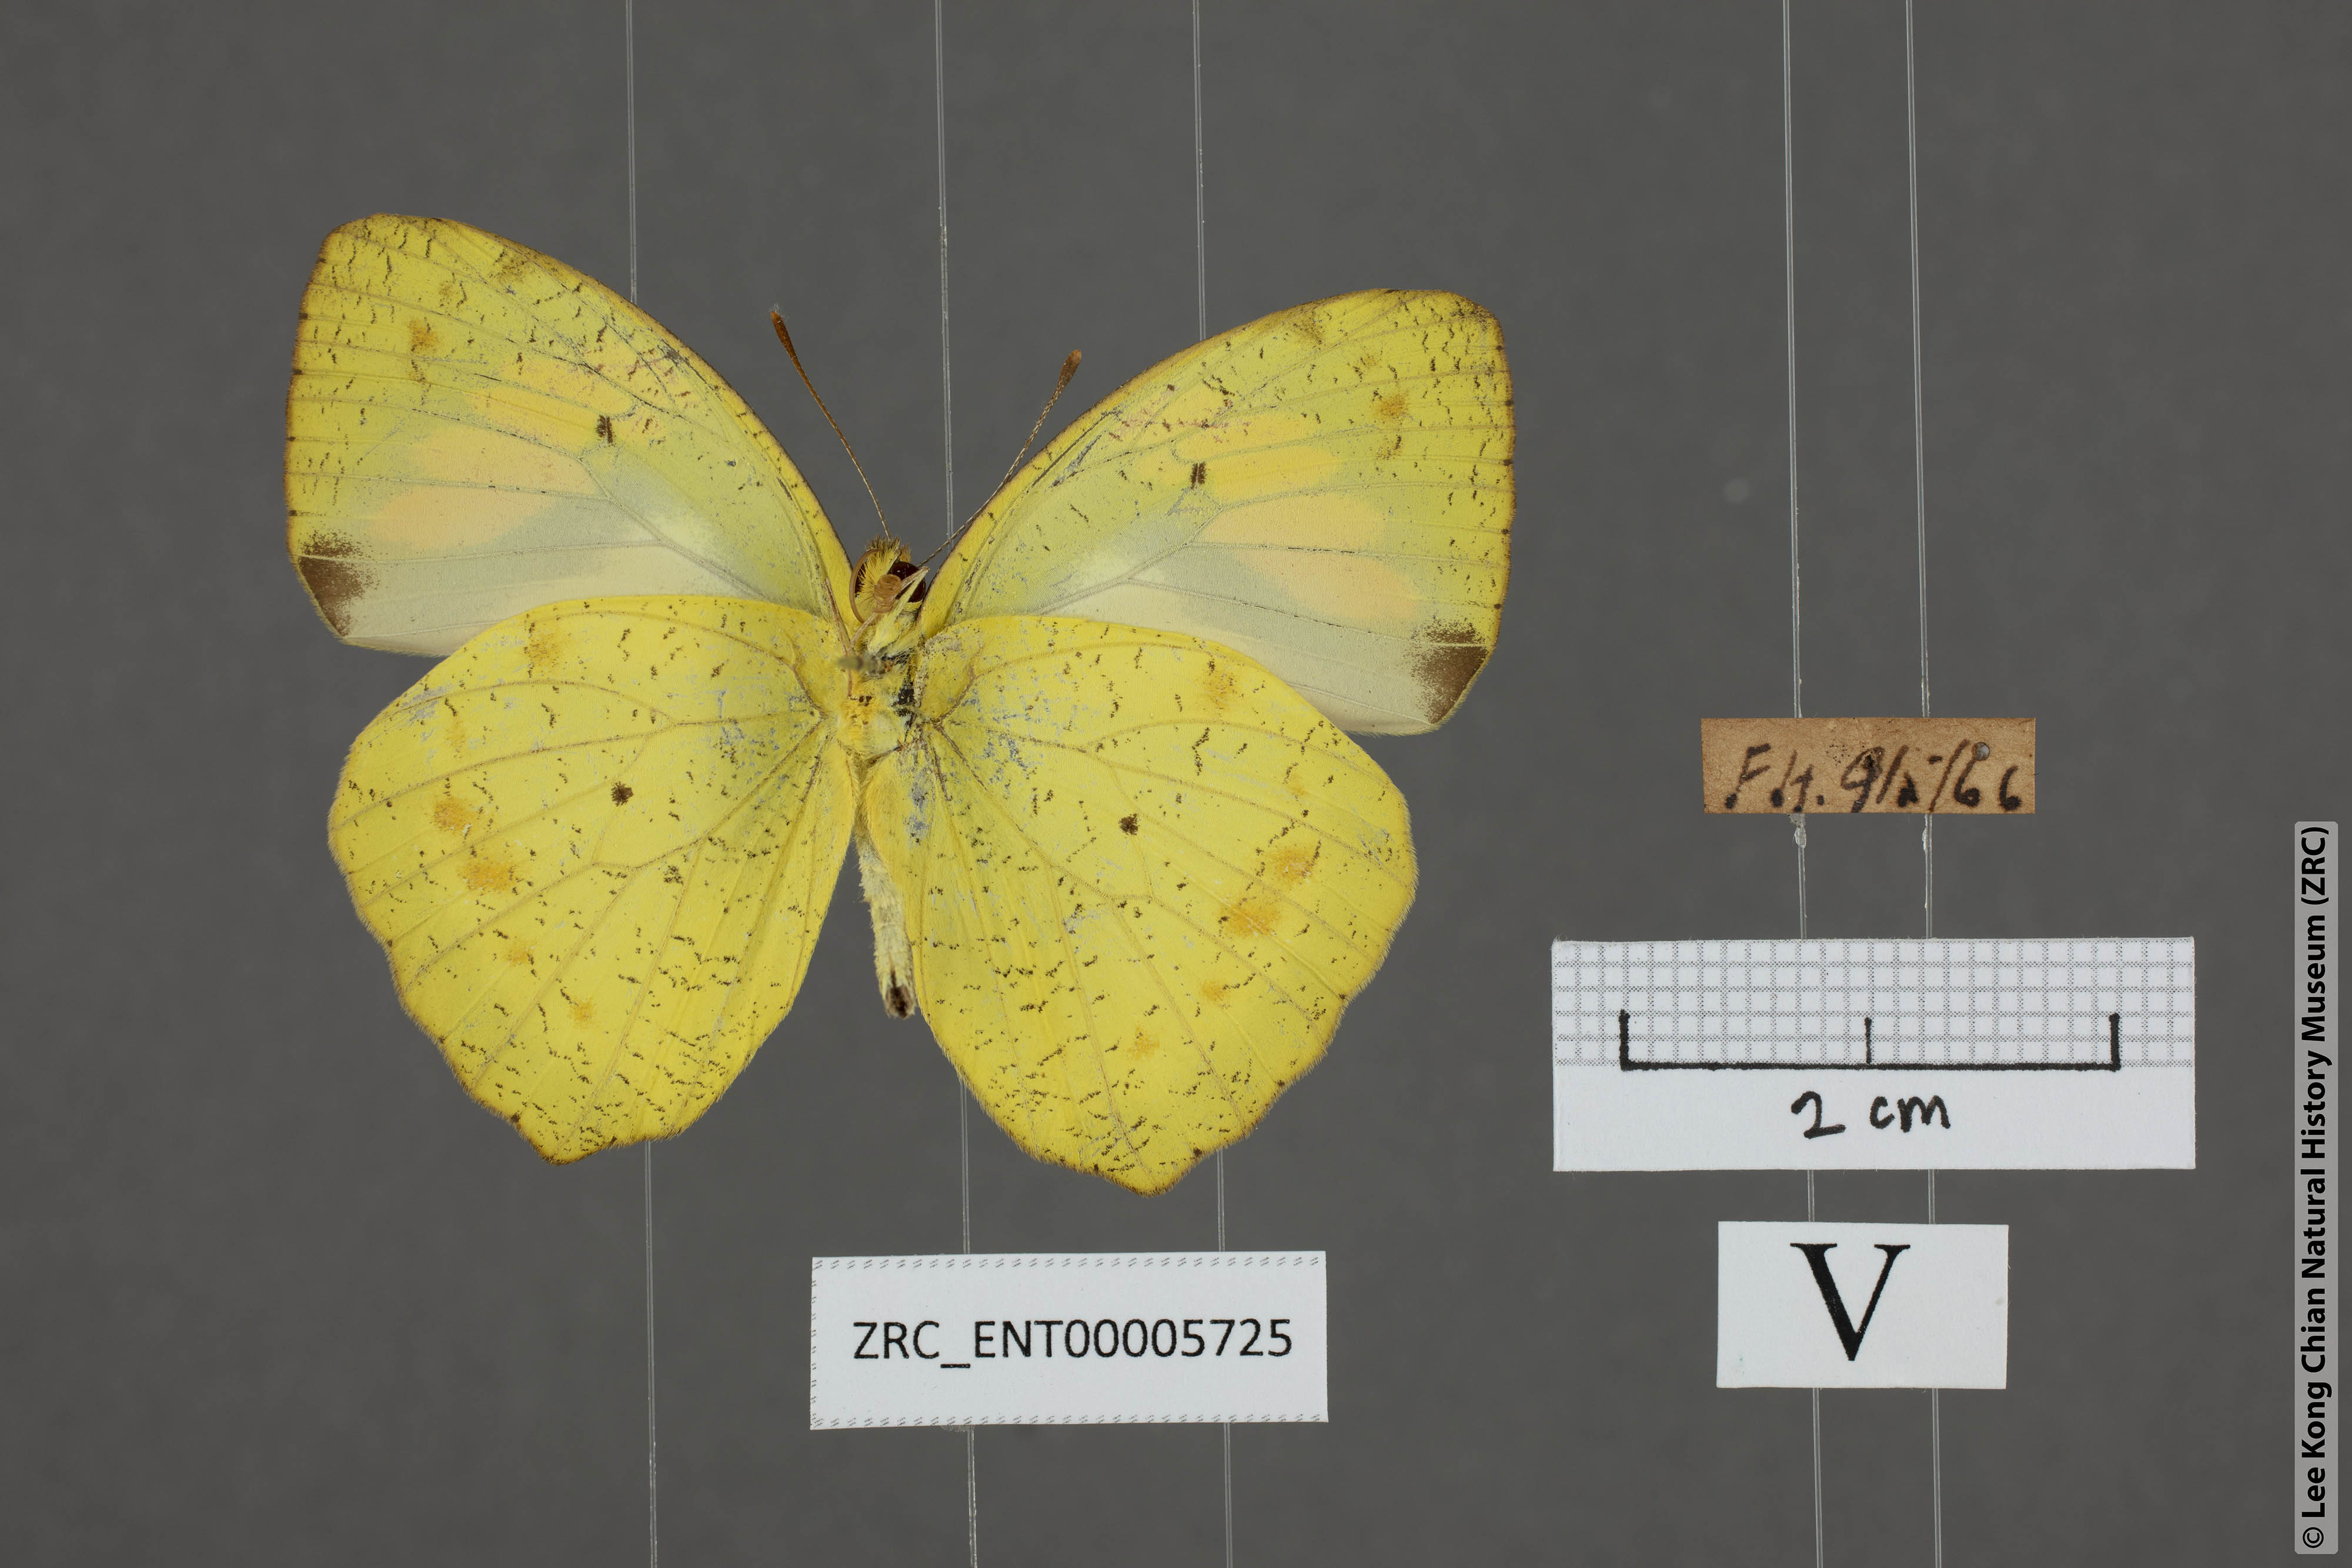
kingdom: Animalia
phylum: Arthropoda
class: Insecta
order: Lepidoptera
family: Pieridae
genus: Ixias
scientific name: Ixias pyrene
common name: Yellow orange tip
